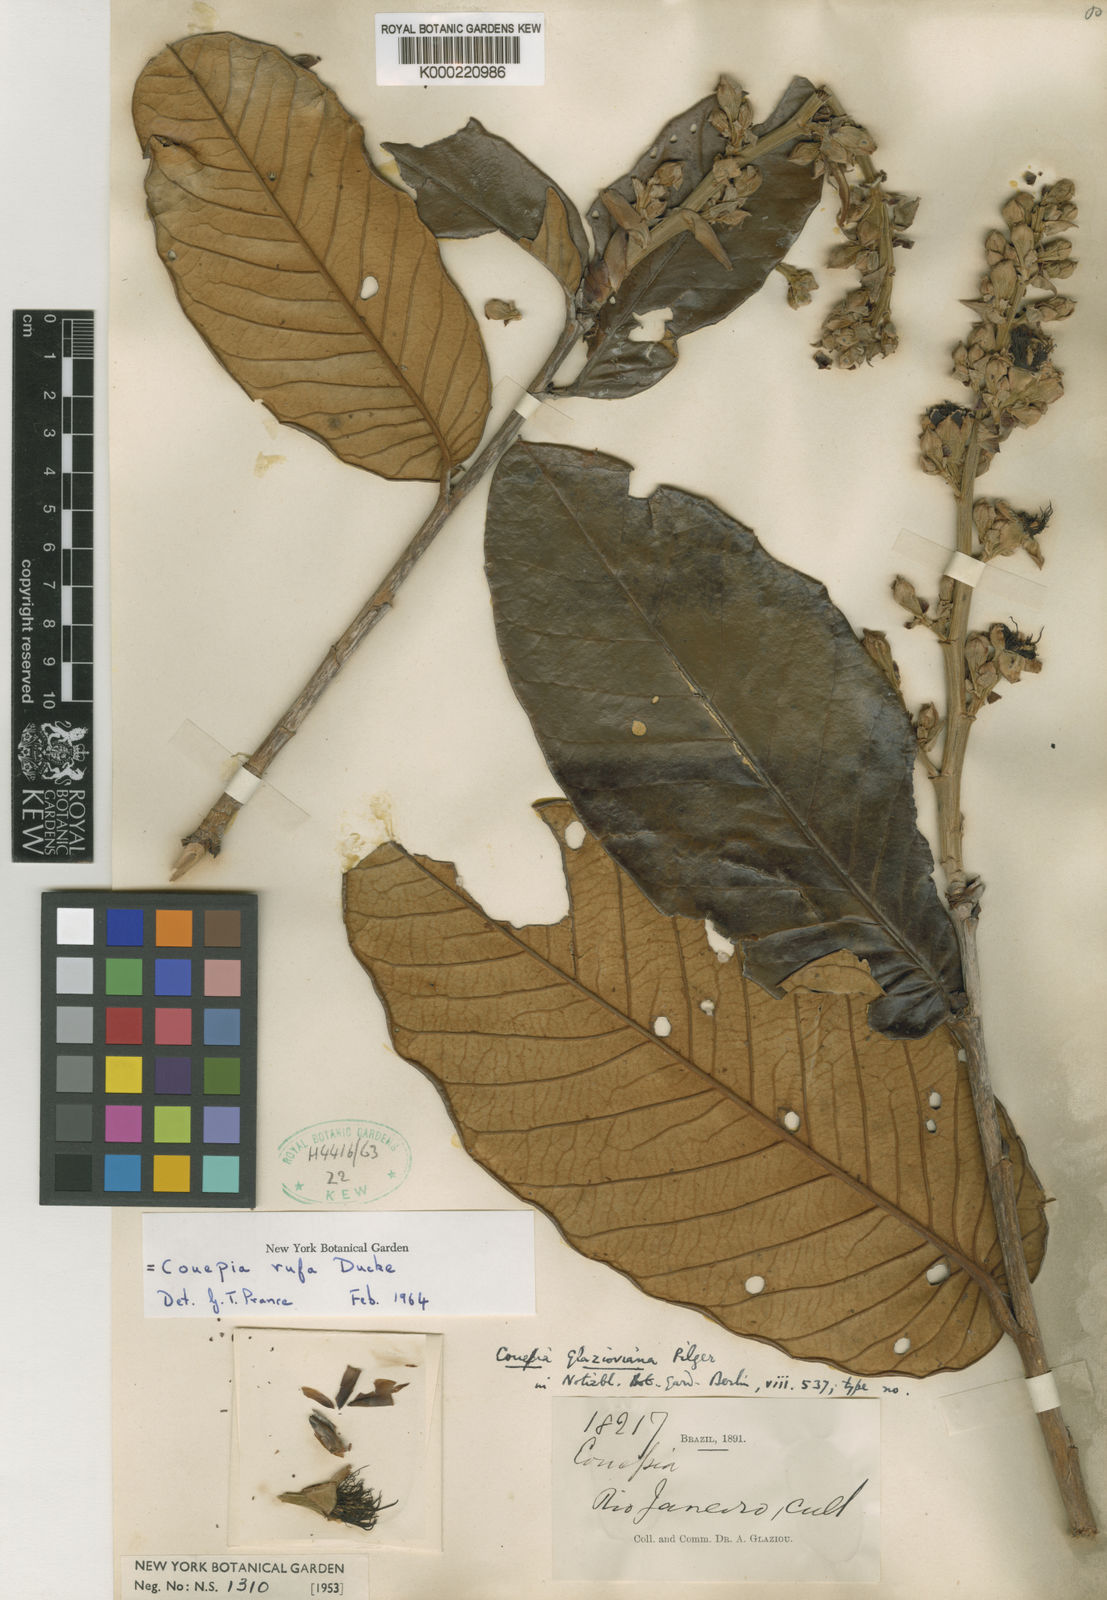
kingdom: Plantae
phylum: Tracheophyta
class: Magnoliopsida
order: Malpighiales
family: Chrysobalanaceae
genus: Couepia
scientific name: Couepia rufa
